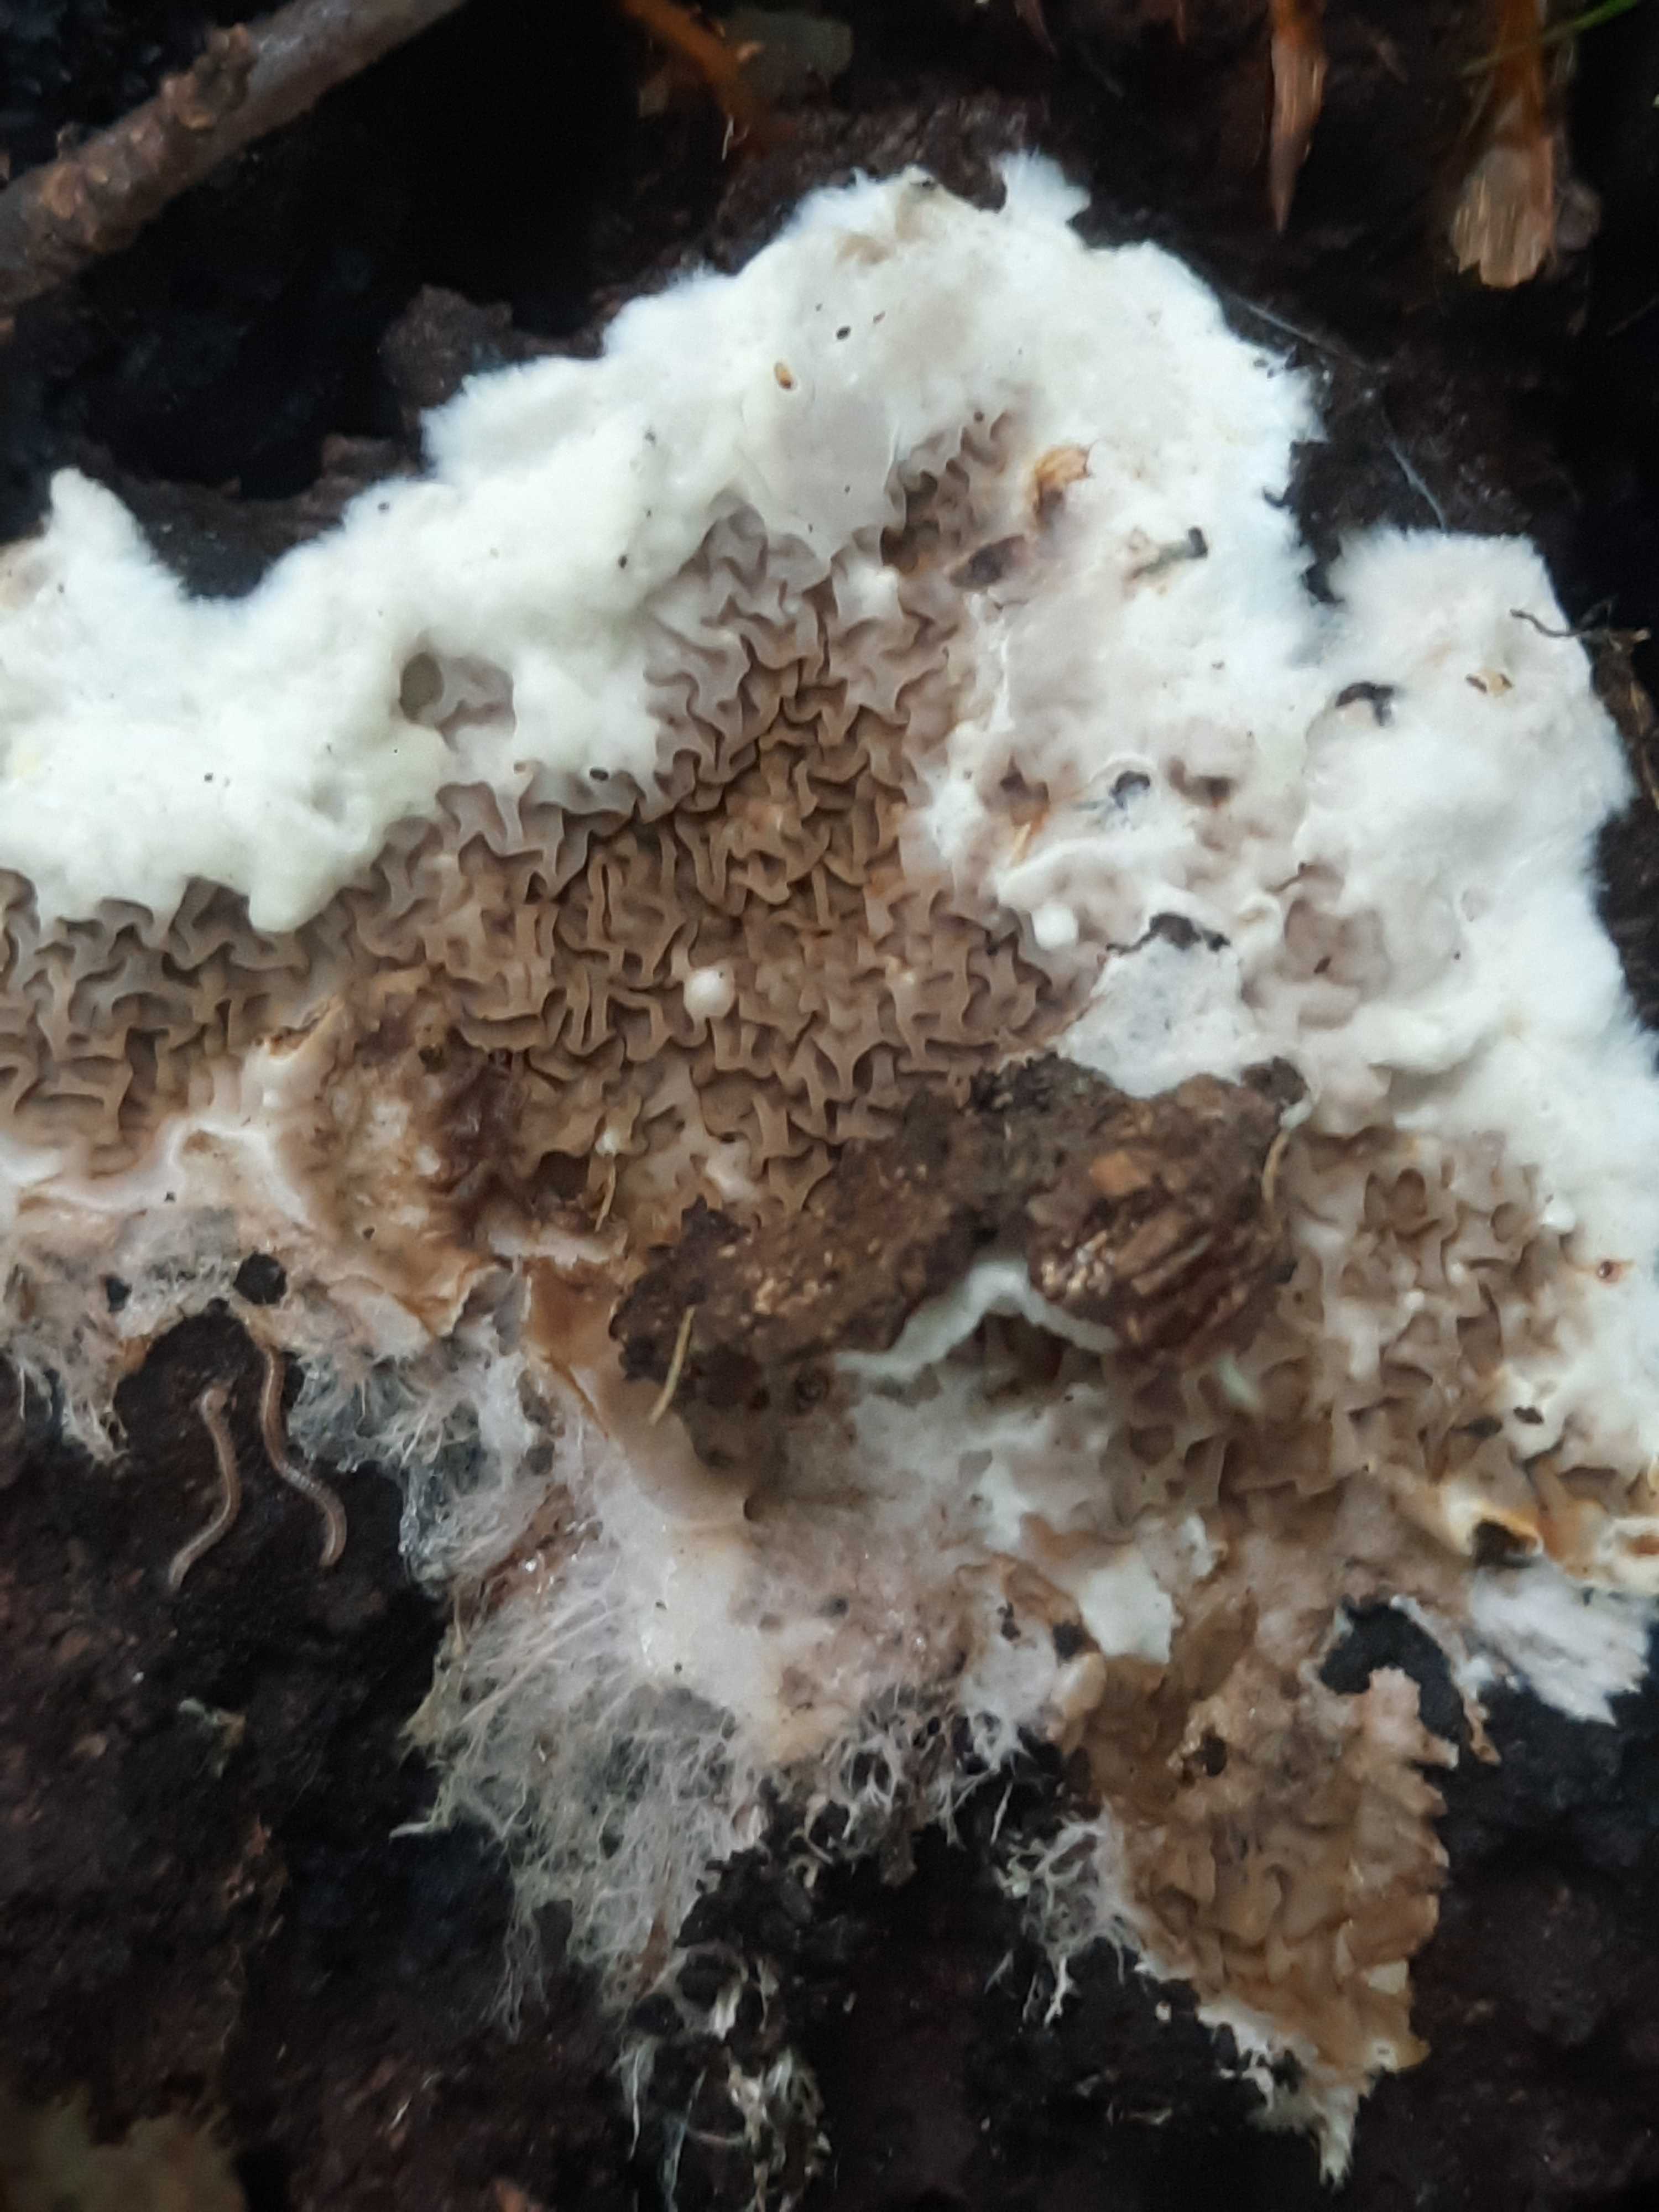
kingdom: Fungi
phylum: Basidiomycota
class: Agaricomycetes
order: Boletales
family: Serpulaceae
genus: Serpula
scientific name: Serpula
